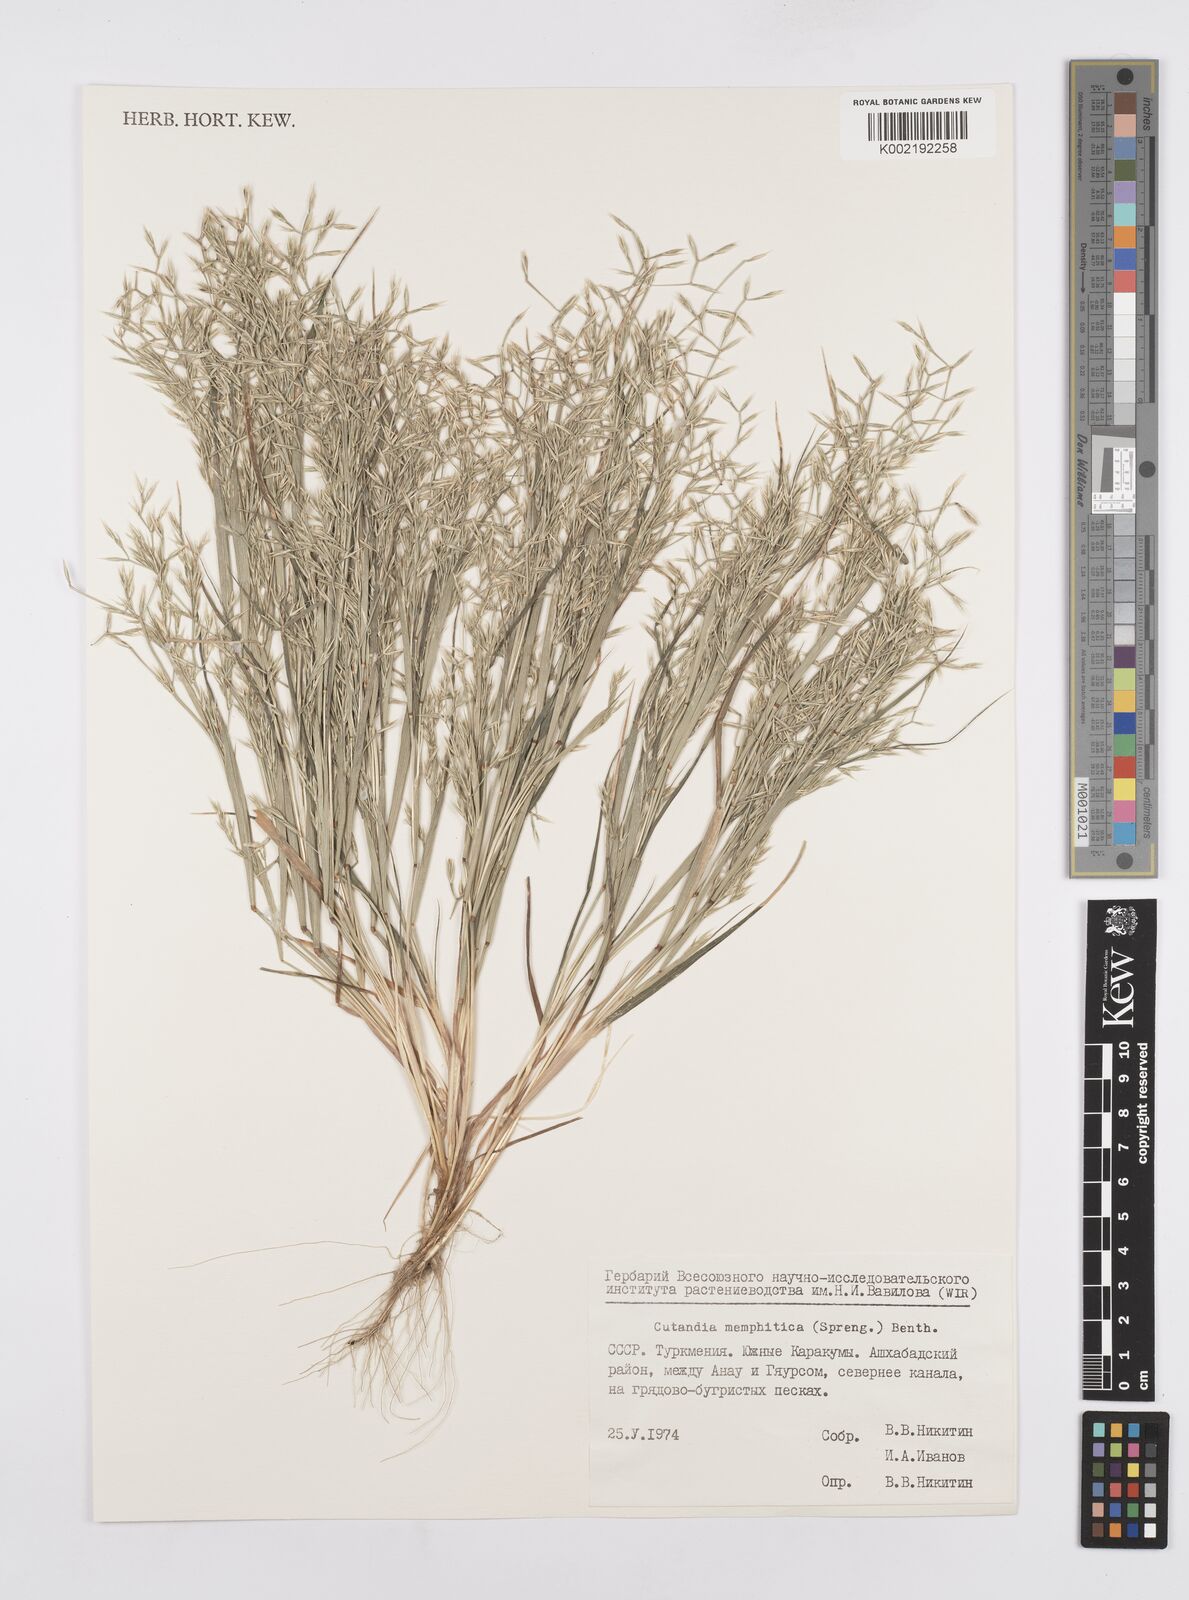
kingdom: Plantae
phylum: Tracheophyta
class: Liliopsida
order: Poales
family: Poaceae
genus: Cutandia
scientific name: Cutandia memphitica
